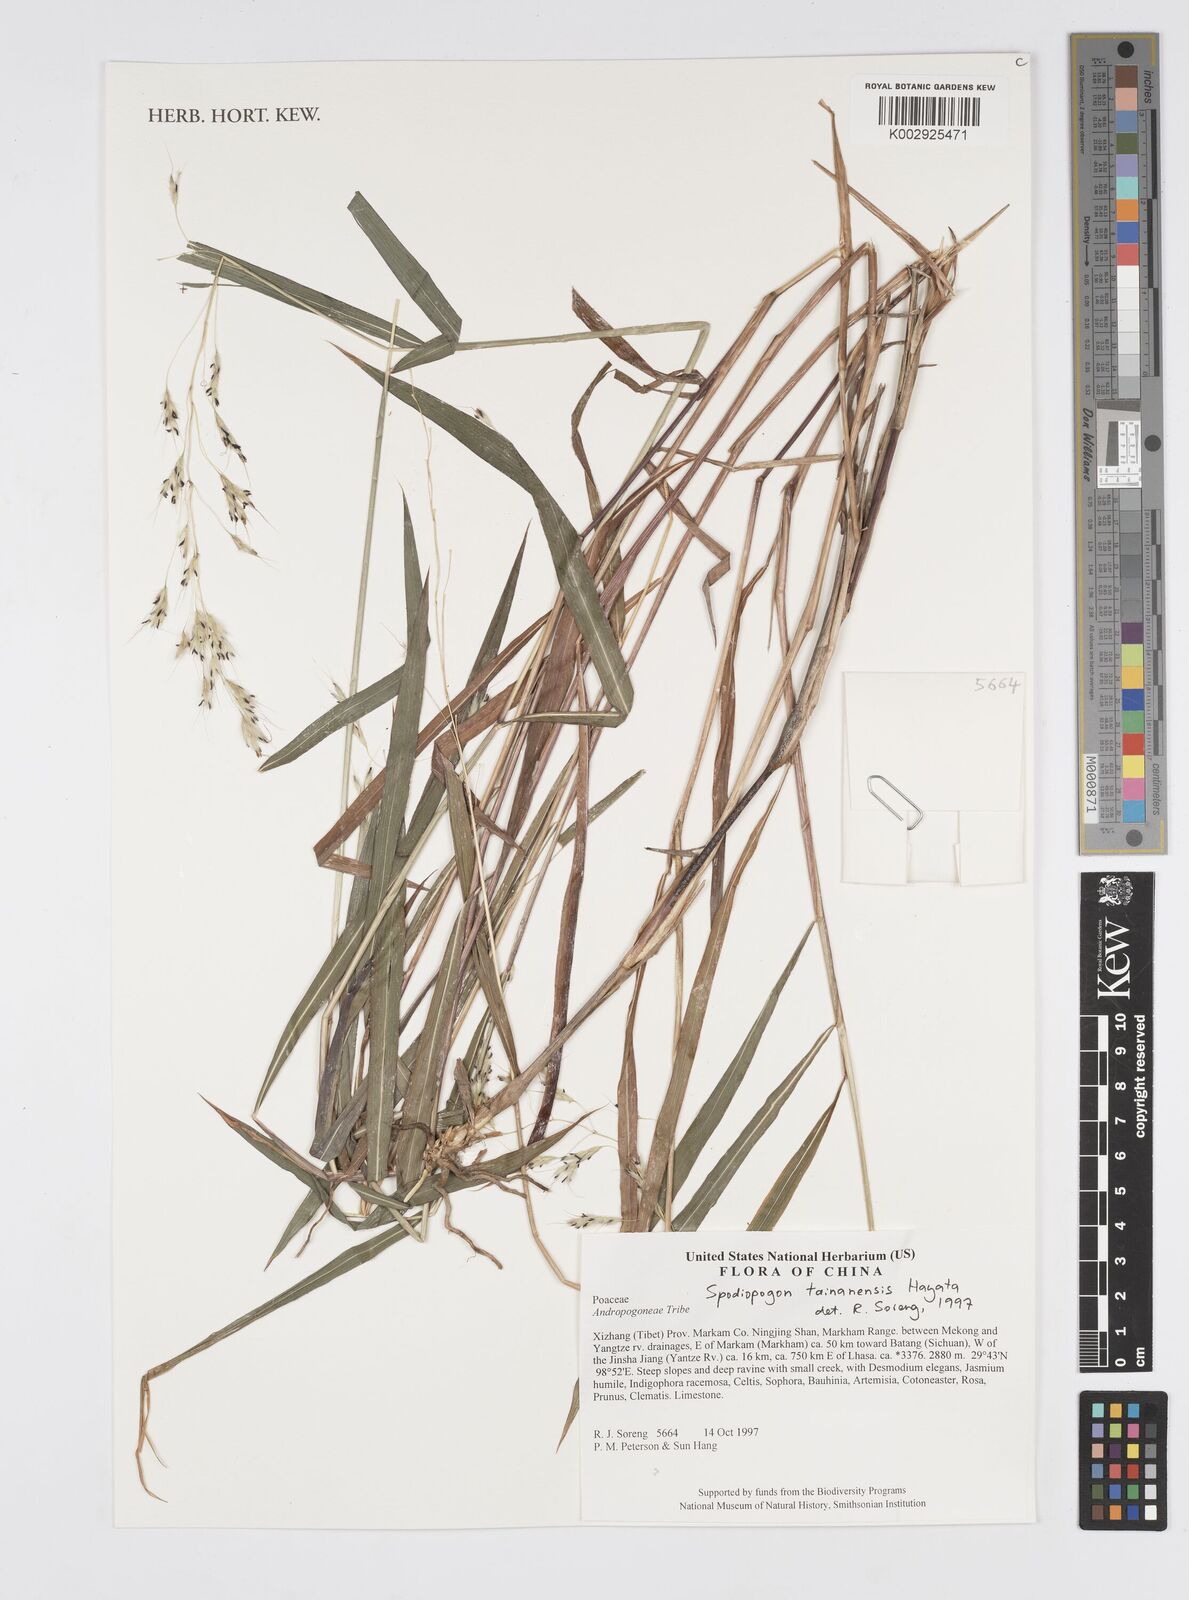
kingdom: Plantae
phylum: Tracheophyta
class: Liliopsida
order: Poales
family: Poaceae
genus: Spodiopogon
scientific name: Spodiopogon tainanensis
